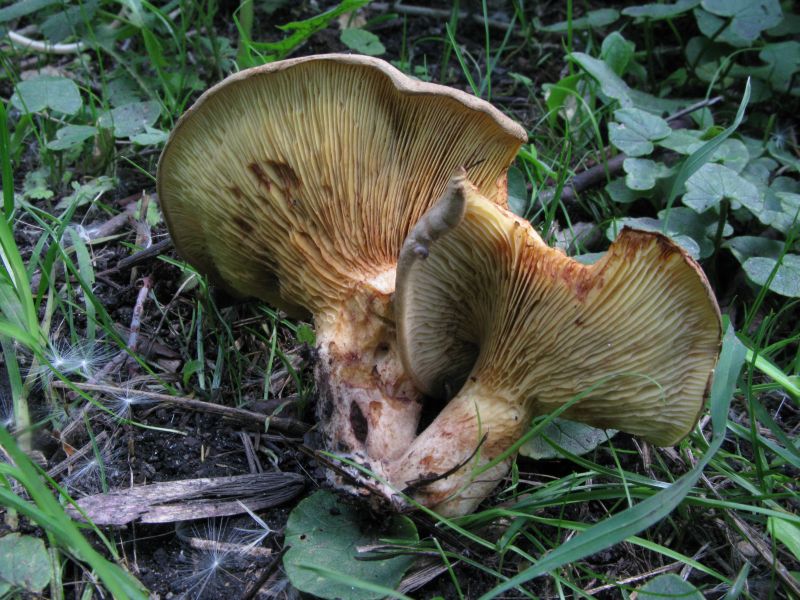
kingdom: Fungi
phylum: Basidiomycota
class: Agaricomycetes
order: Boletales
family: Paxillaceae
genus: Paxillus
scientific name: Paxillus rubicundulus
